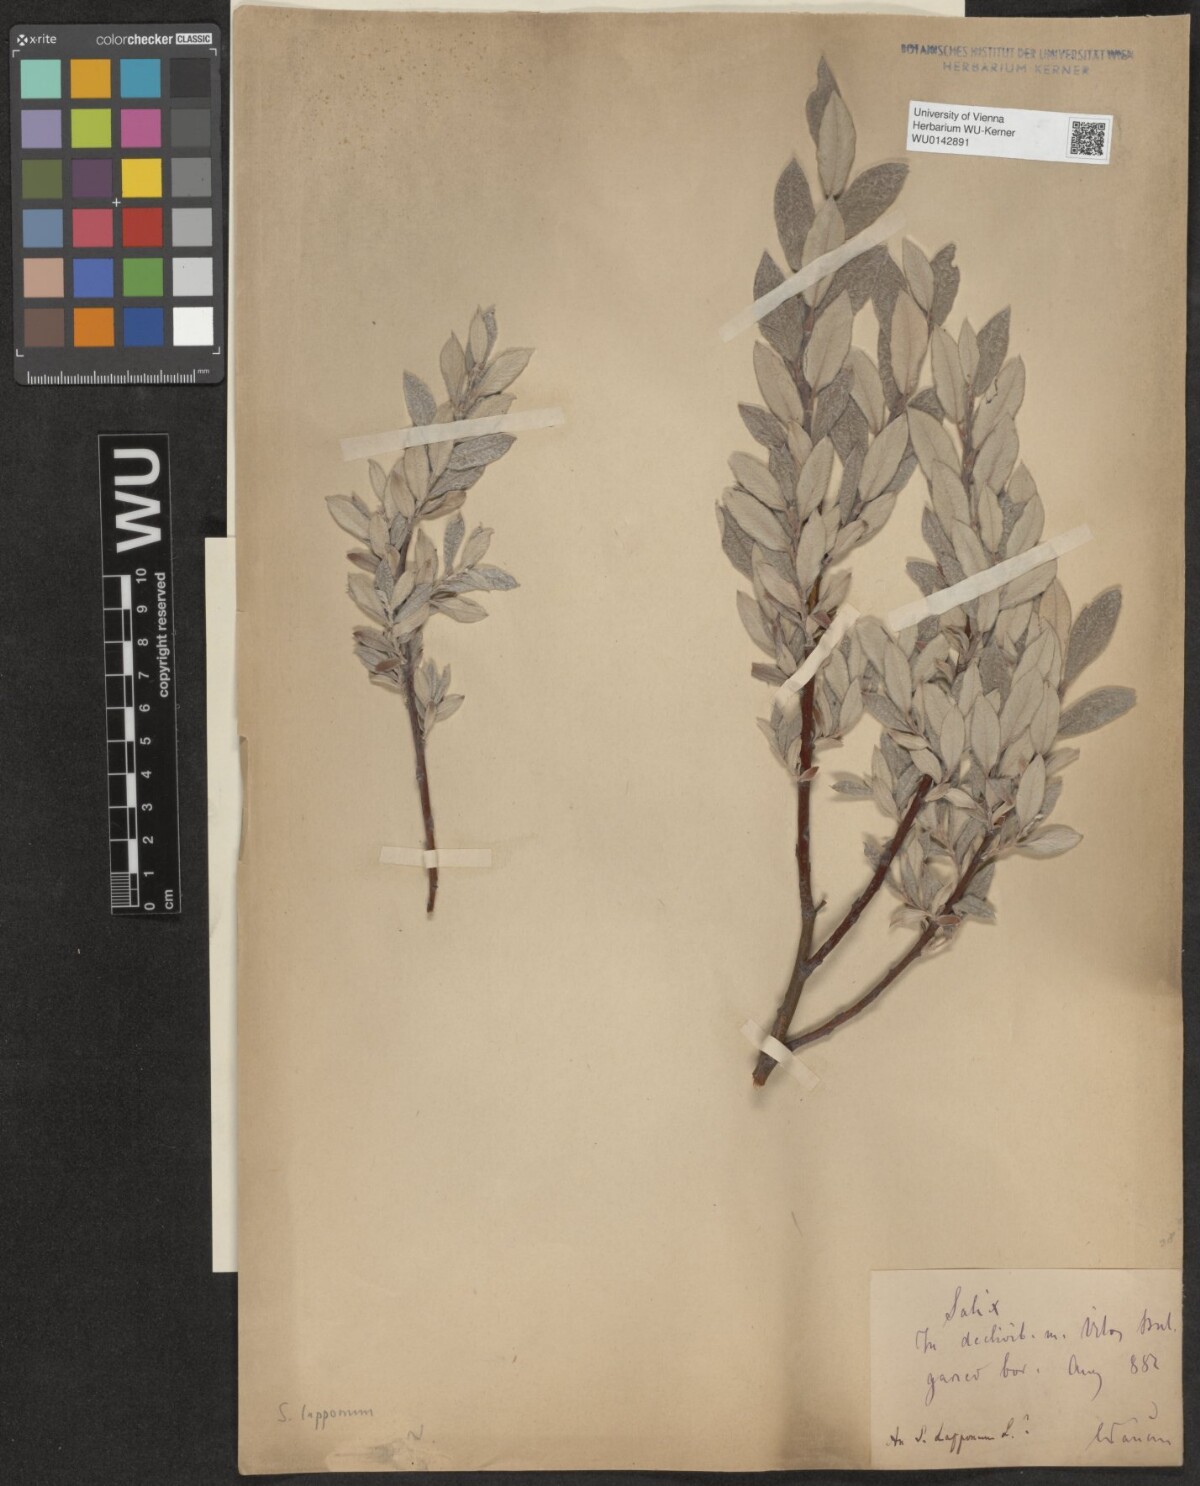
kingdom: Plantae
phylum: Tracheophyta
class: Magnoliopsida
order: Malpighiales
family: Salicaceae
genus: Salix
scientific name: Salix lapponum
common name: Downy willow
